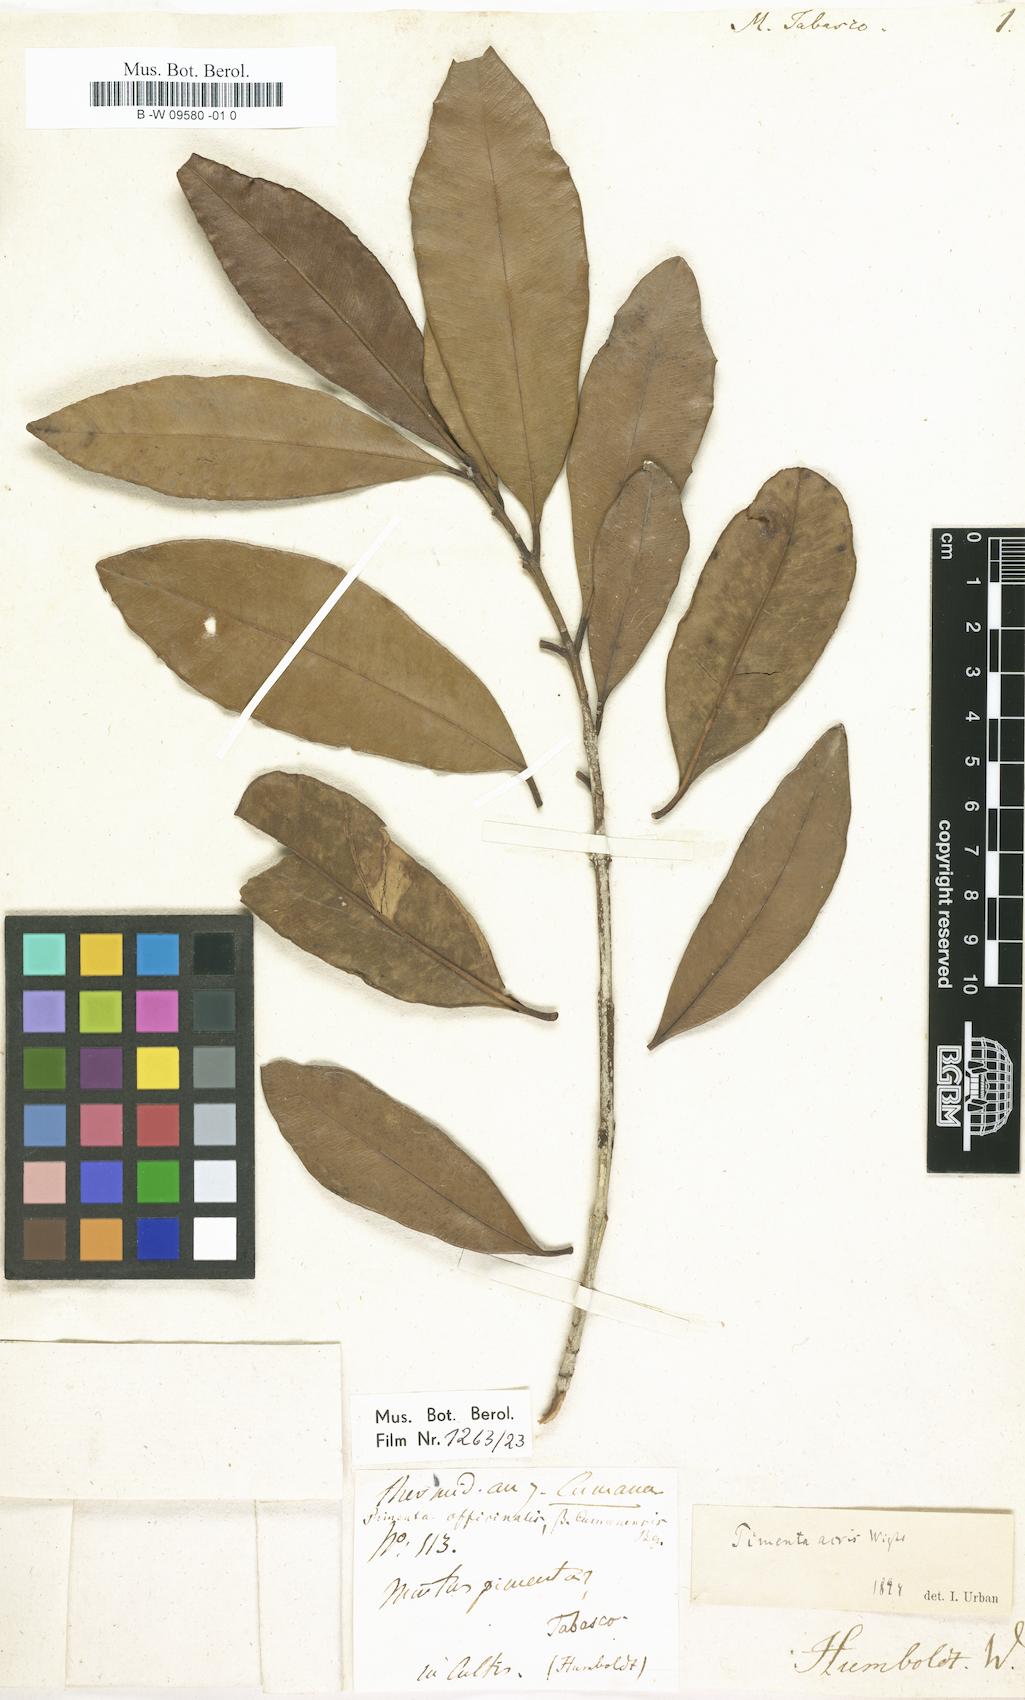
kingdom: Plantae
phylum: Tracheophyta
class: Magnoliopsida
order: Myrtales
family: Myrtaceae
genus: Pimenta
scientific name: Pimenta dioica
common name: Allspice
